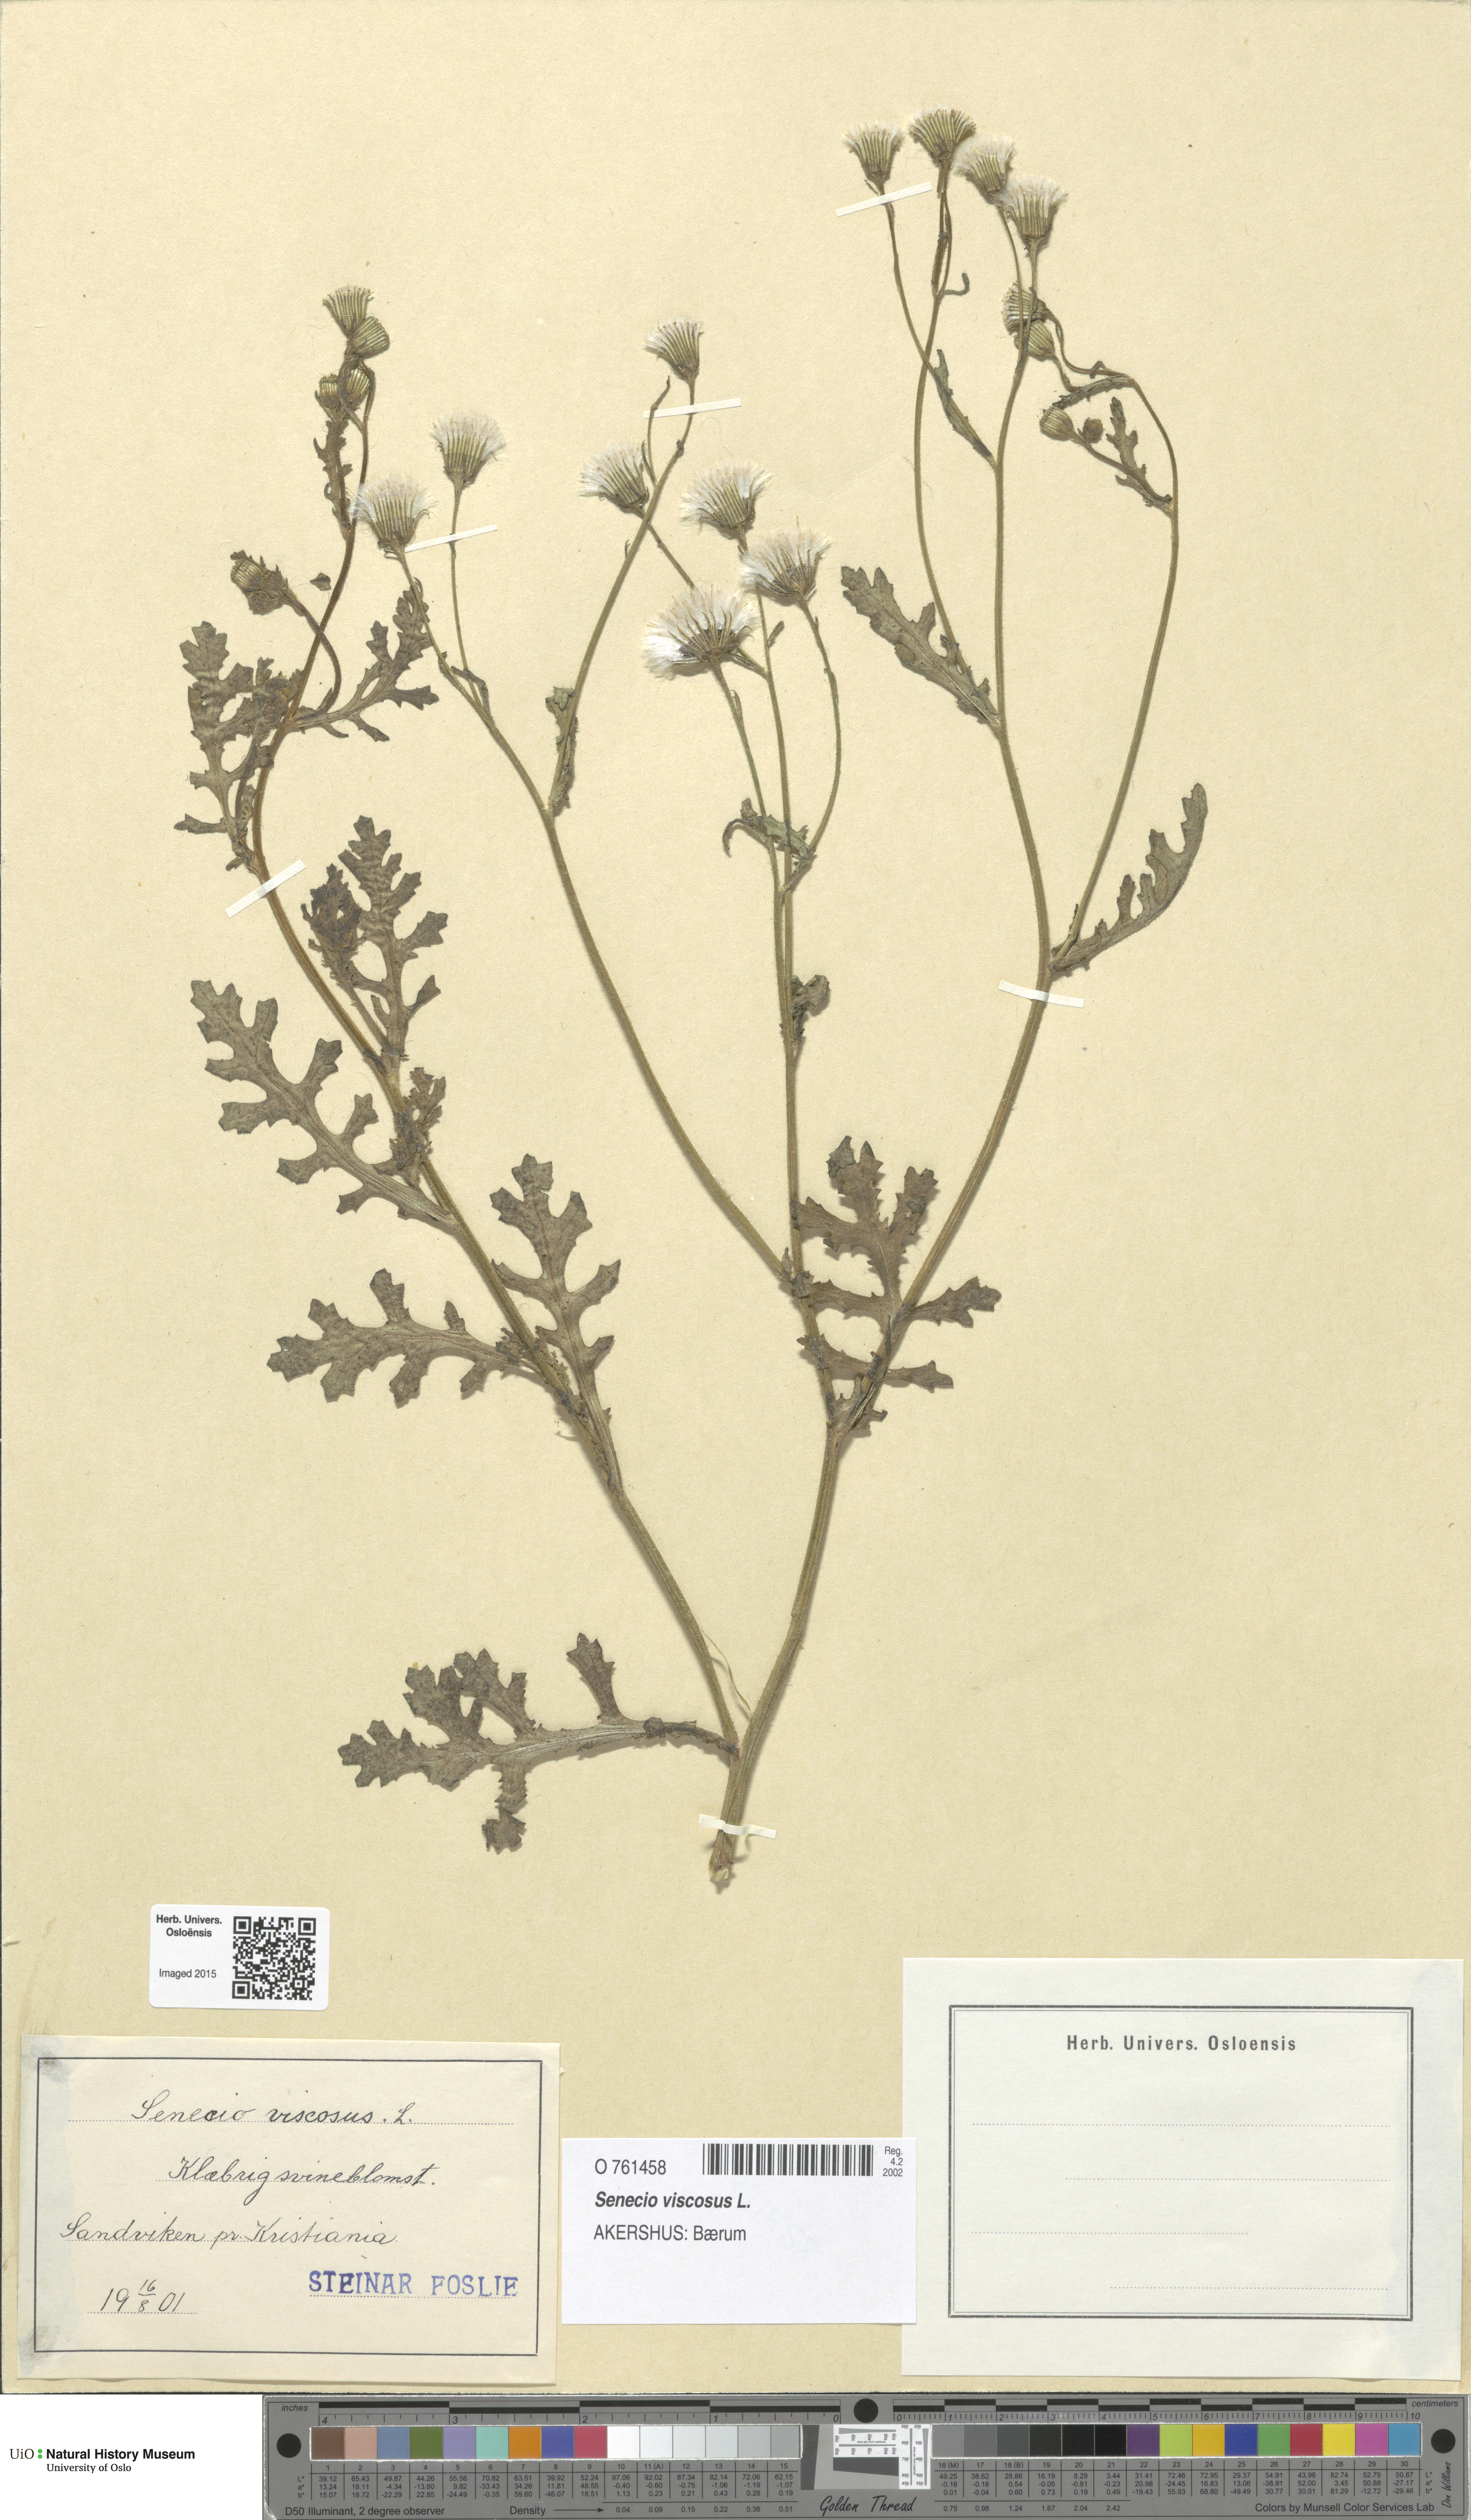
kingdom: Plantae
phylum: Tracheophyta
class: Magnoliopsida
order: Asterales
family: Asteraceae
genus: Senecio
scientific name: Senecio viscosus
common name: Sticky groundsel
